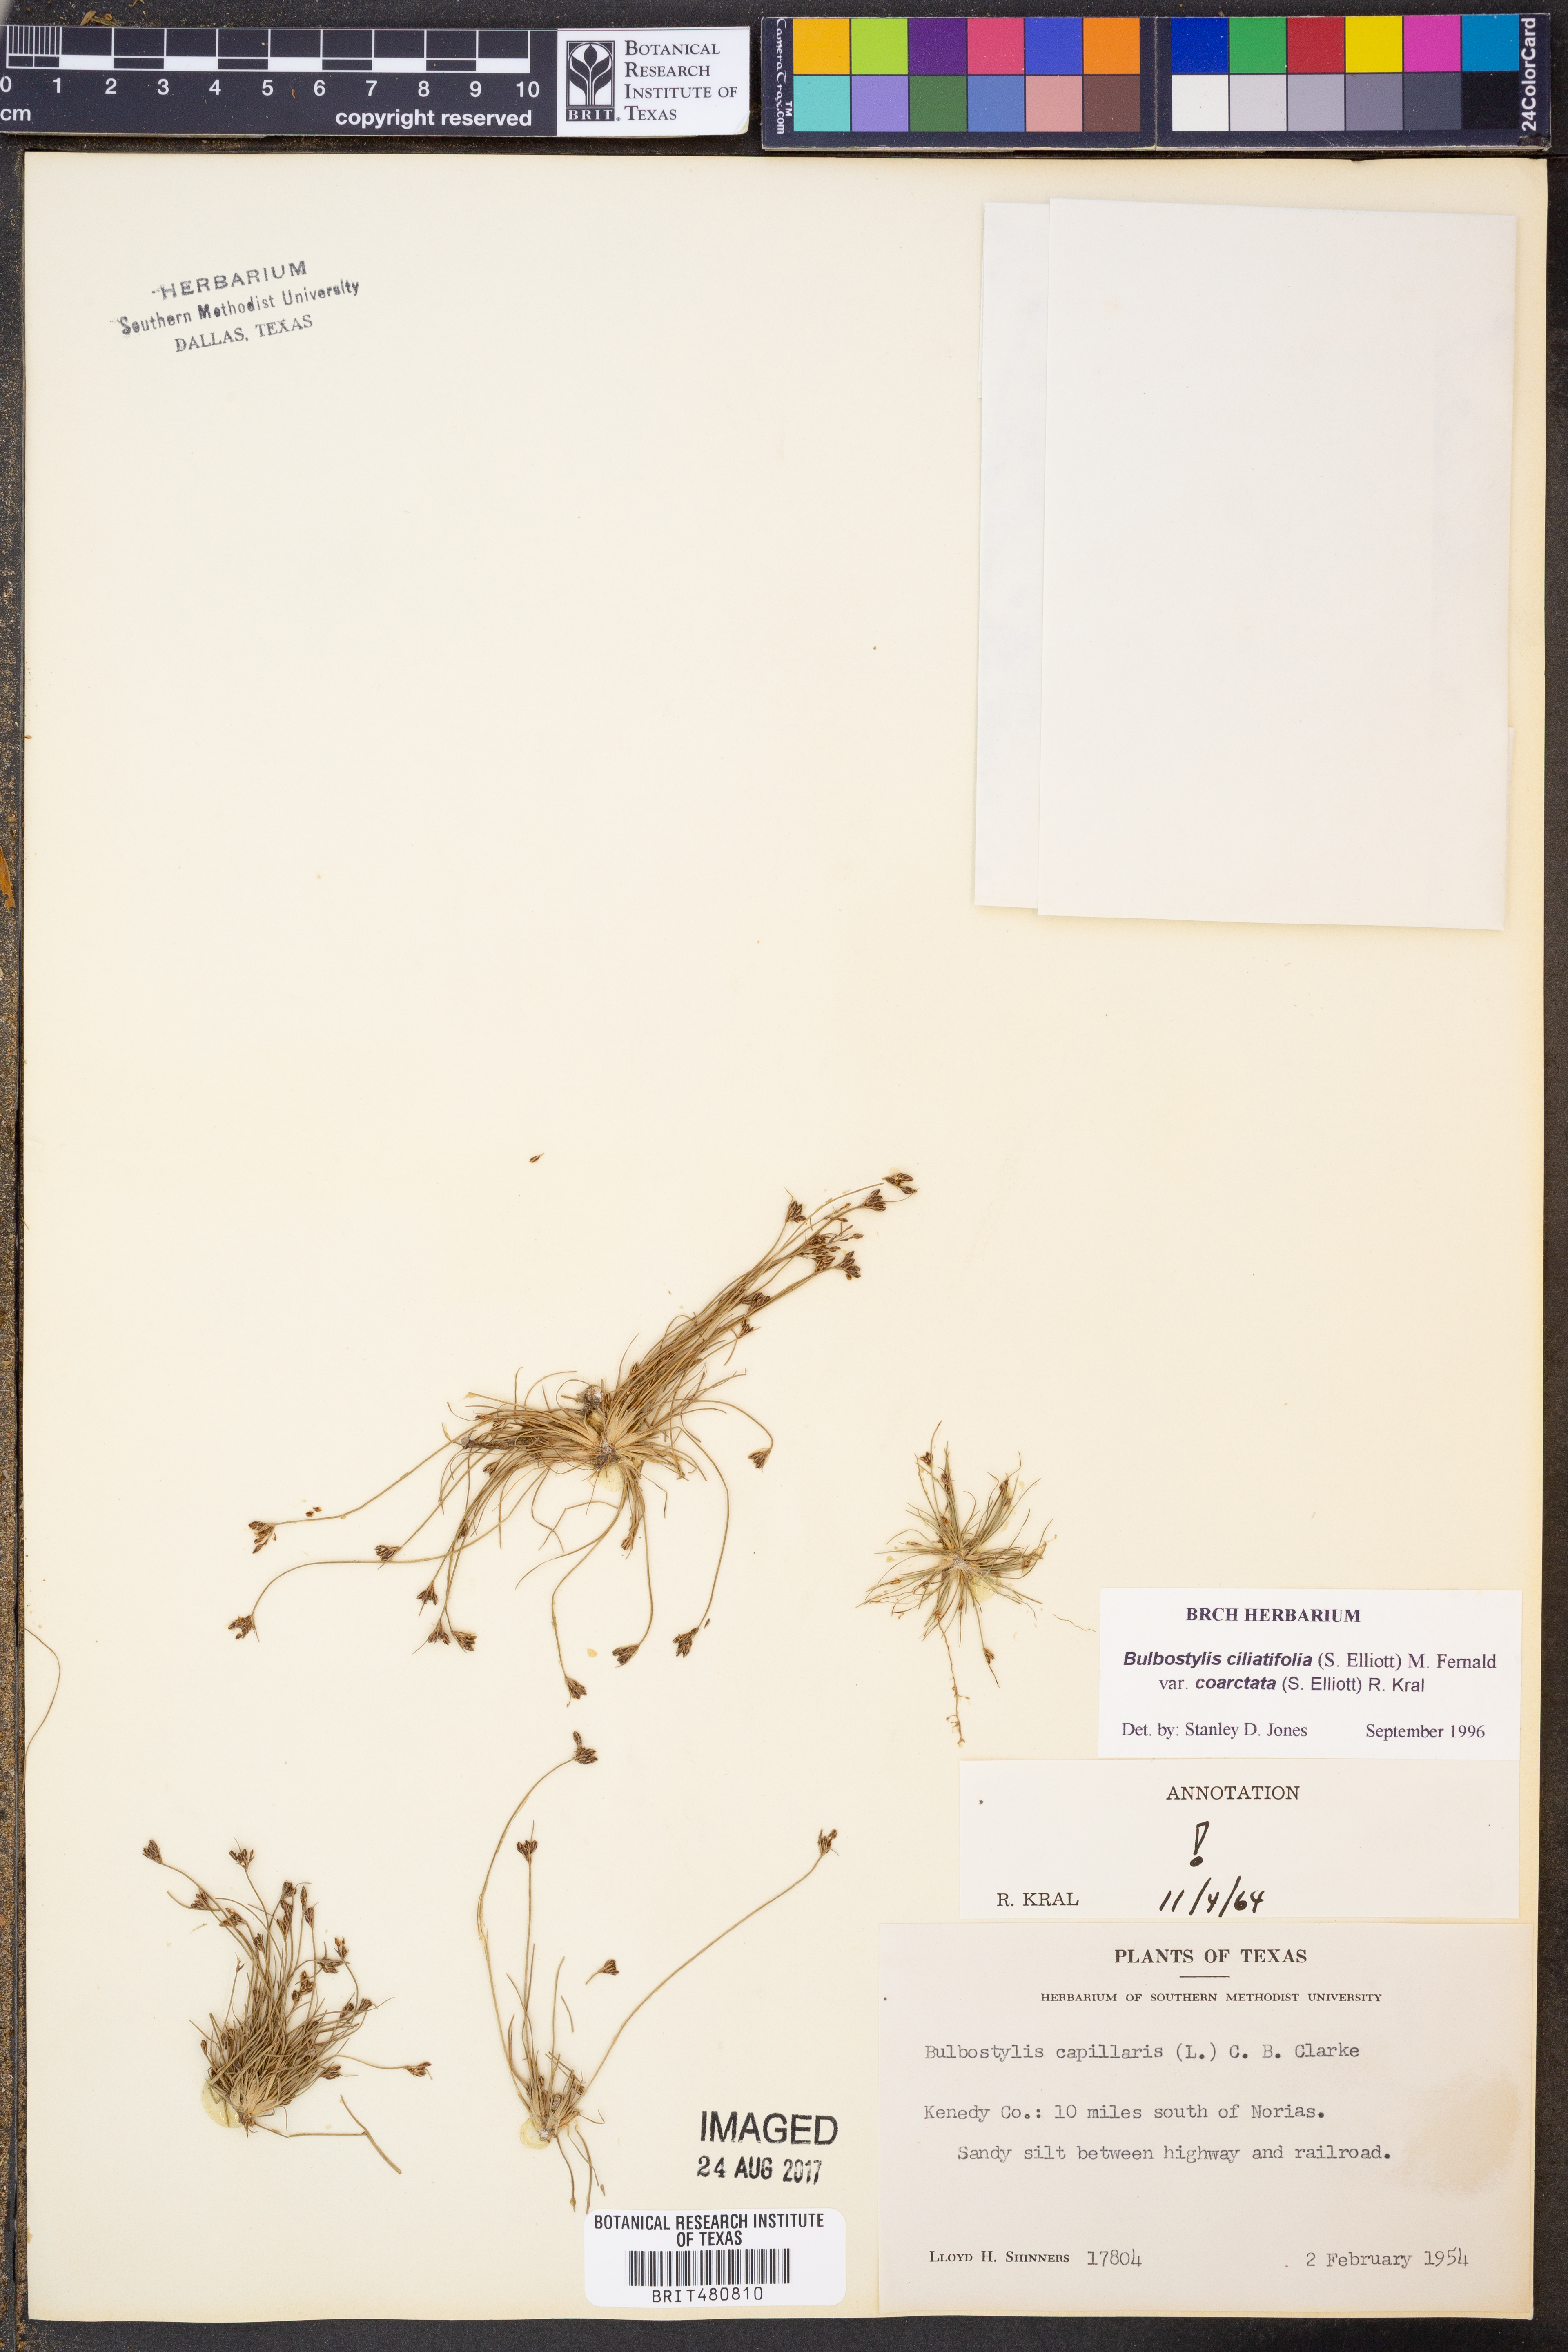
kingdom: Plantae
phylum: Tracheophyta
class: Liliopsida
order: Poales
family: Cyperaceae
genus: Bulbostylis
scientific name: Bulbostylis ciliatifolia
